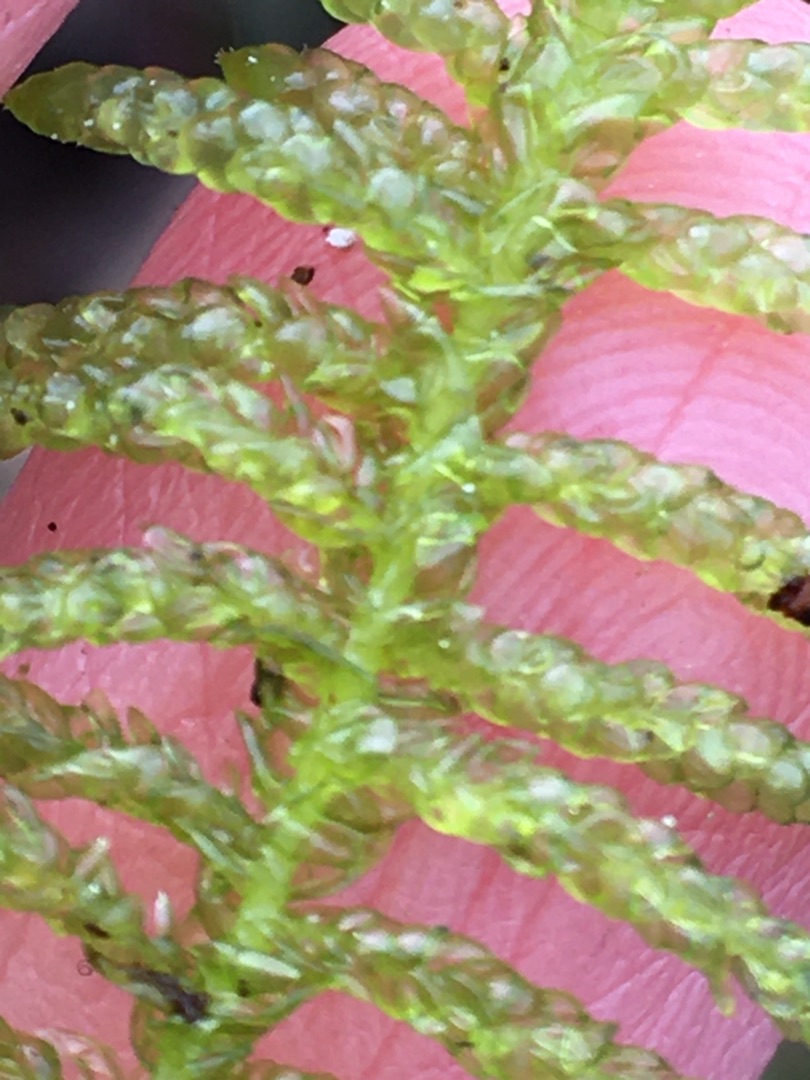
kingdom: Plantae
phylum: Bryophyta
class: Bryopsida
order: Hypnales
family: Brachytheciaceae
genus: Pseudoscleropodium
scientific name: Pseudoscleropodium purum
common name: Hulbladet fedtmos
